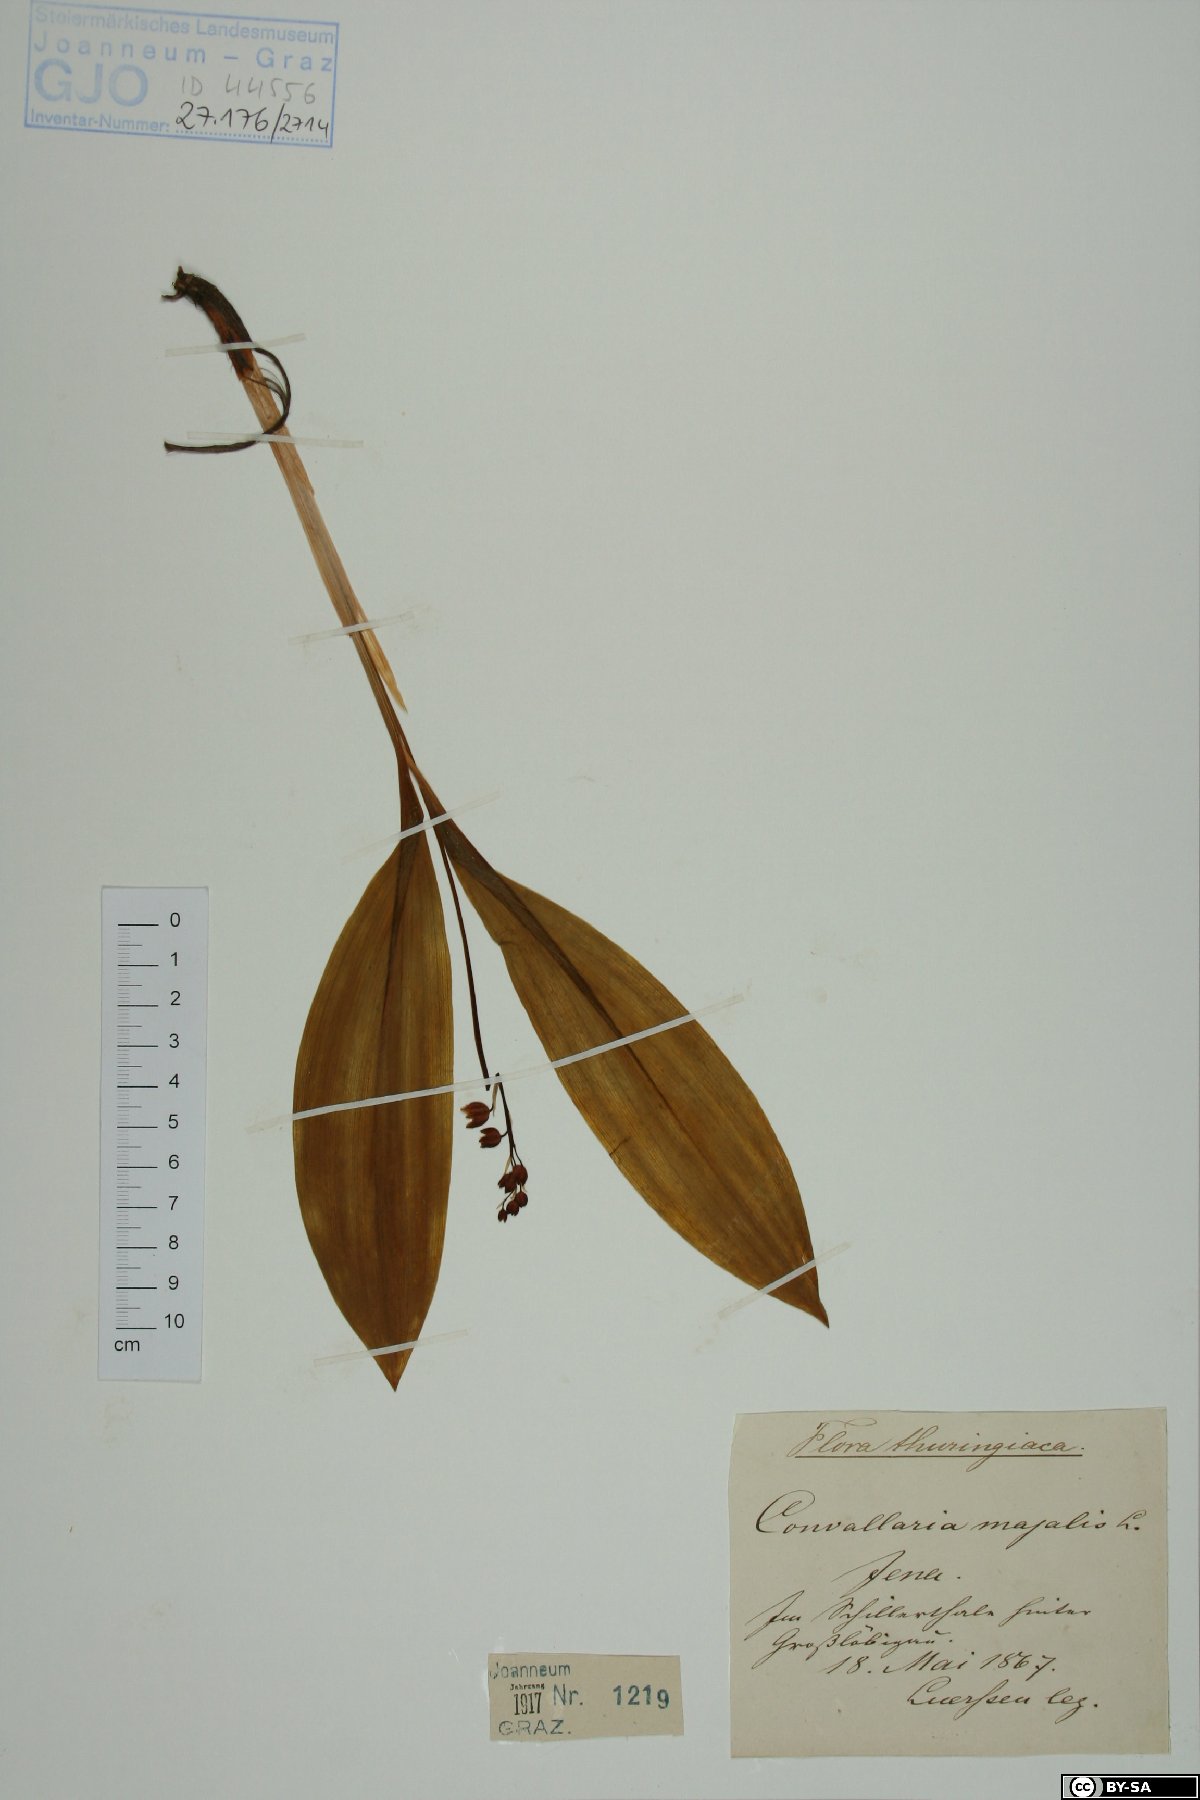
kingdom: Plantae
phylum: Tracheophyta
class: Liliopsida
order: Asparagales
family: Asparagaceae
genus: Convallaria
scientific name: Convallaria majalis
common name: Lily-of-the-valley
